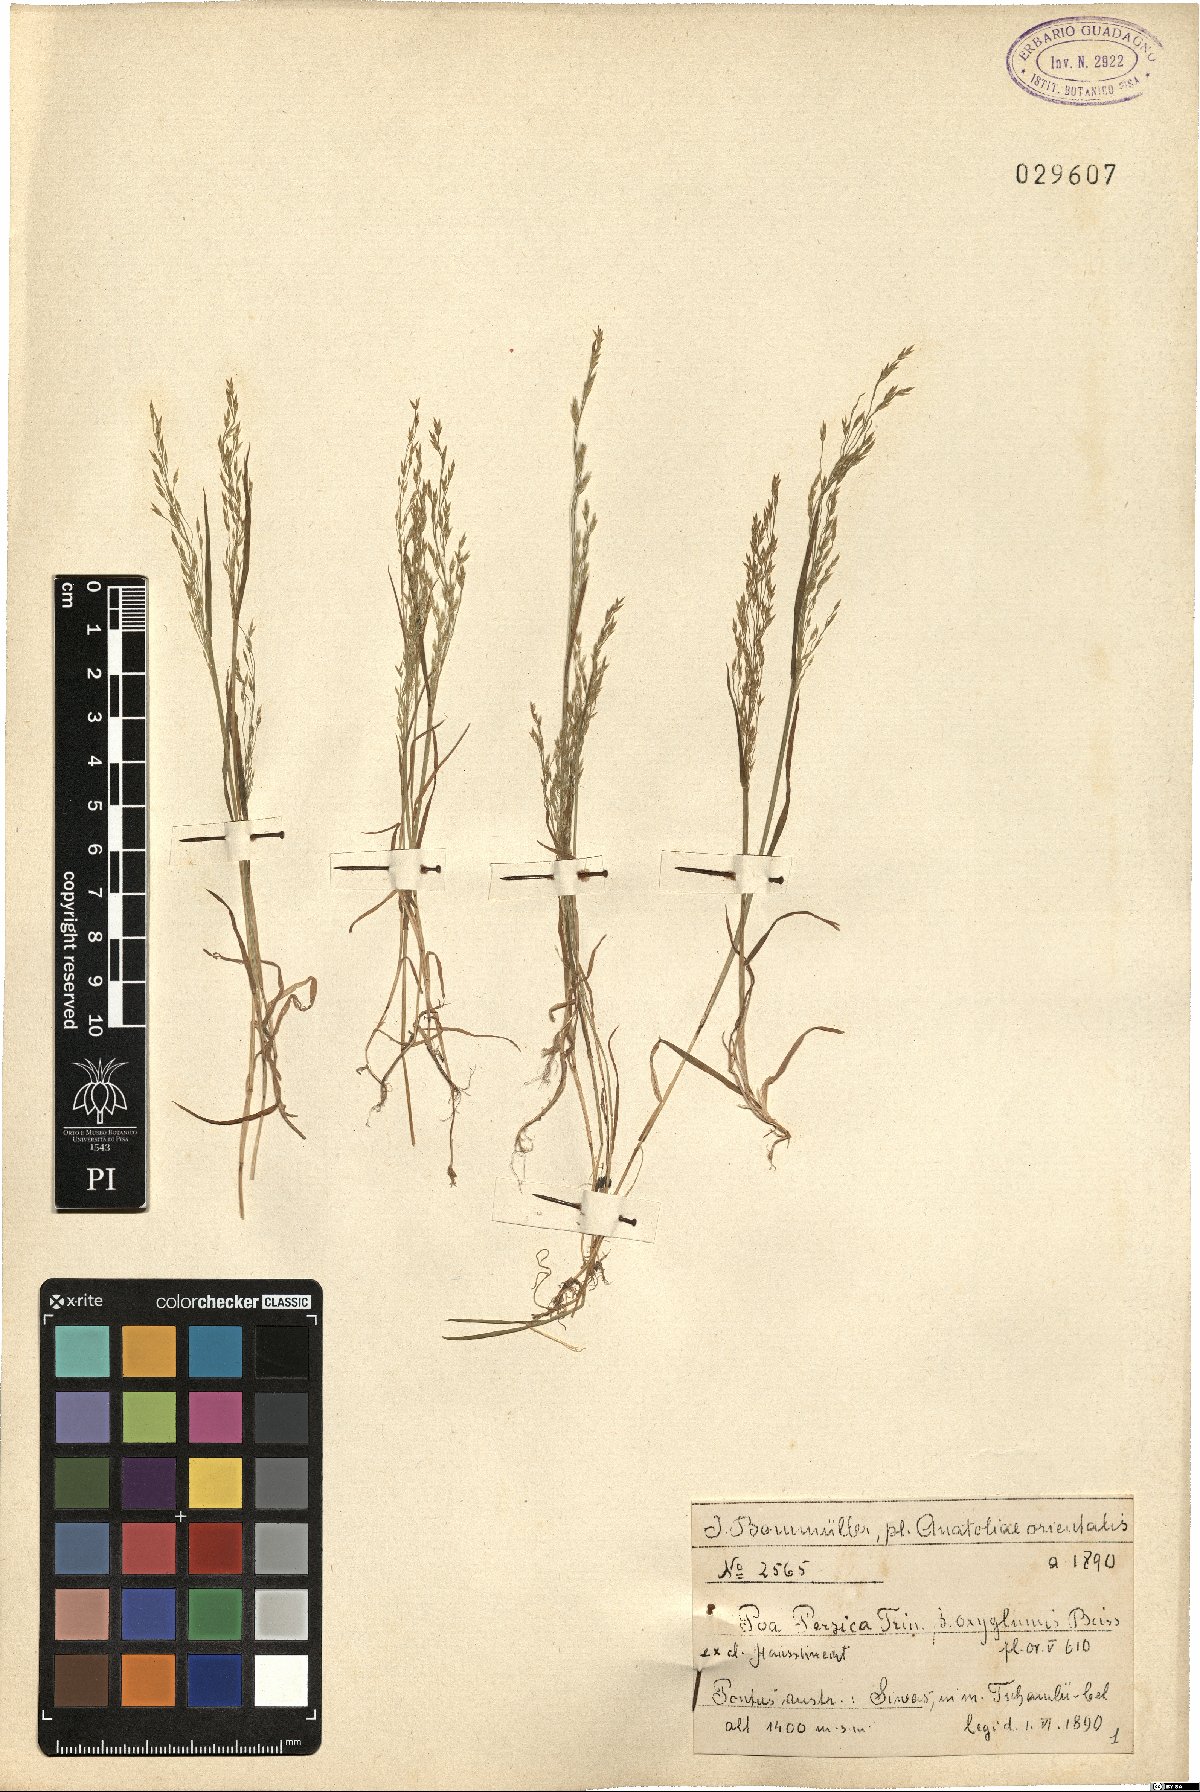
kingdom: Plantae
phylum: Tracheophyta
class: Liliopsida
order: Poales
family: Poaceae
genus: Poa
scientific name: Poa diaphora
